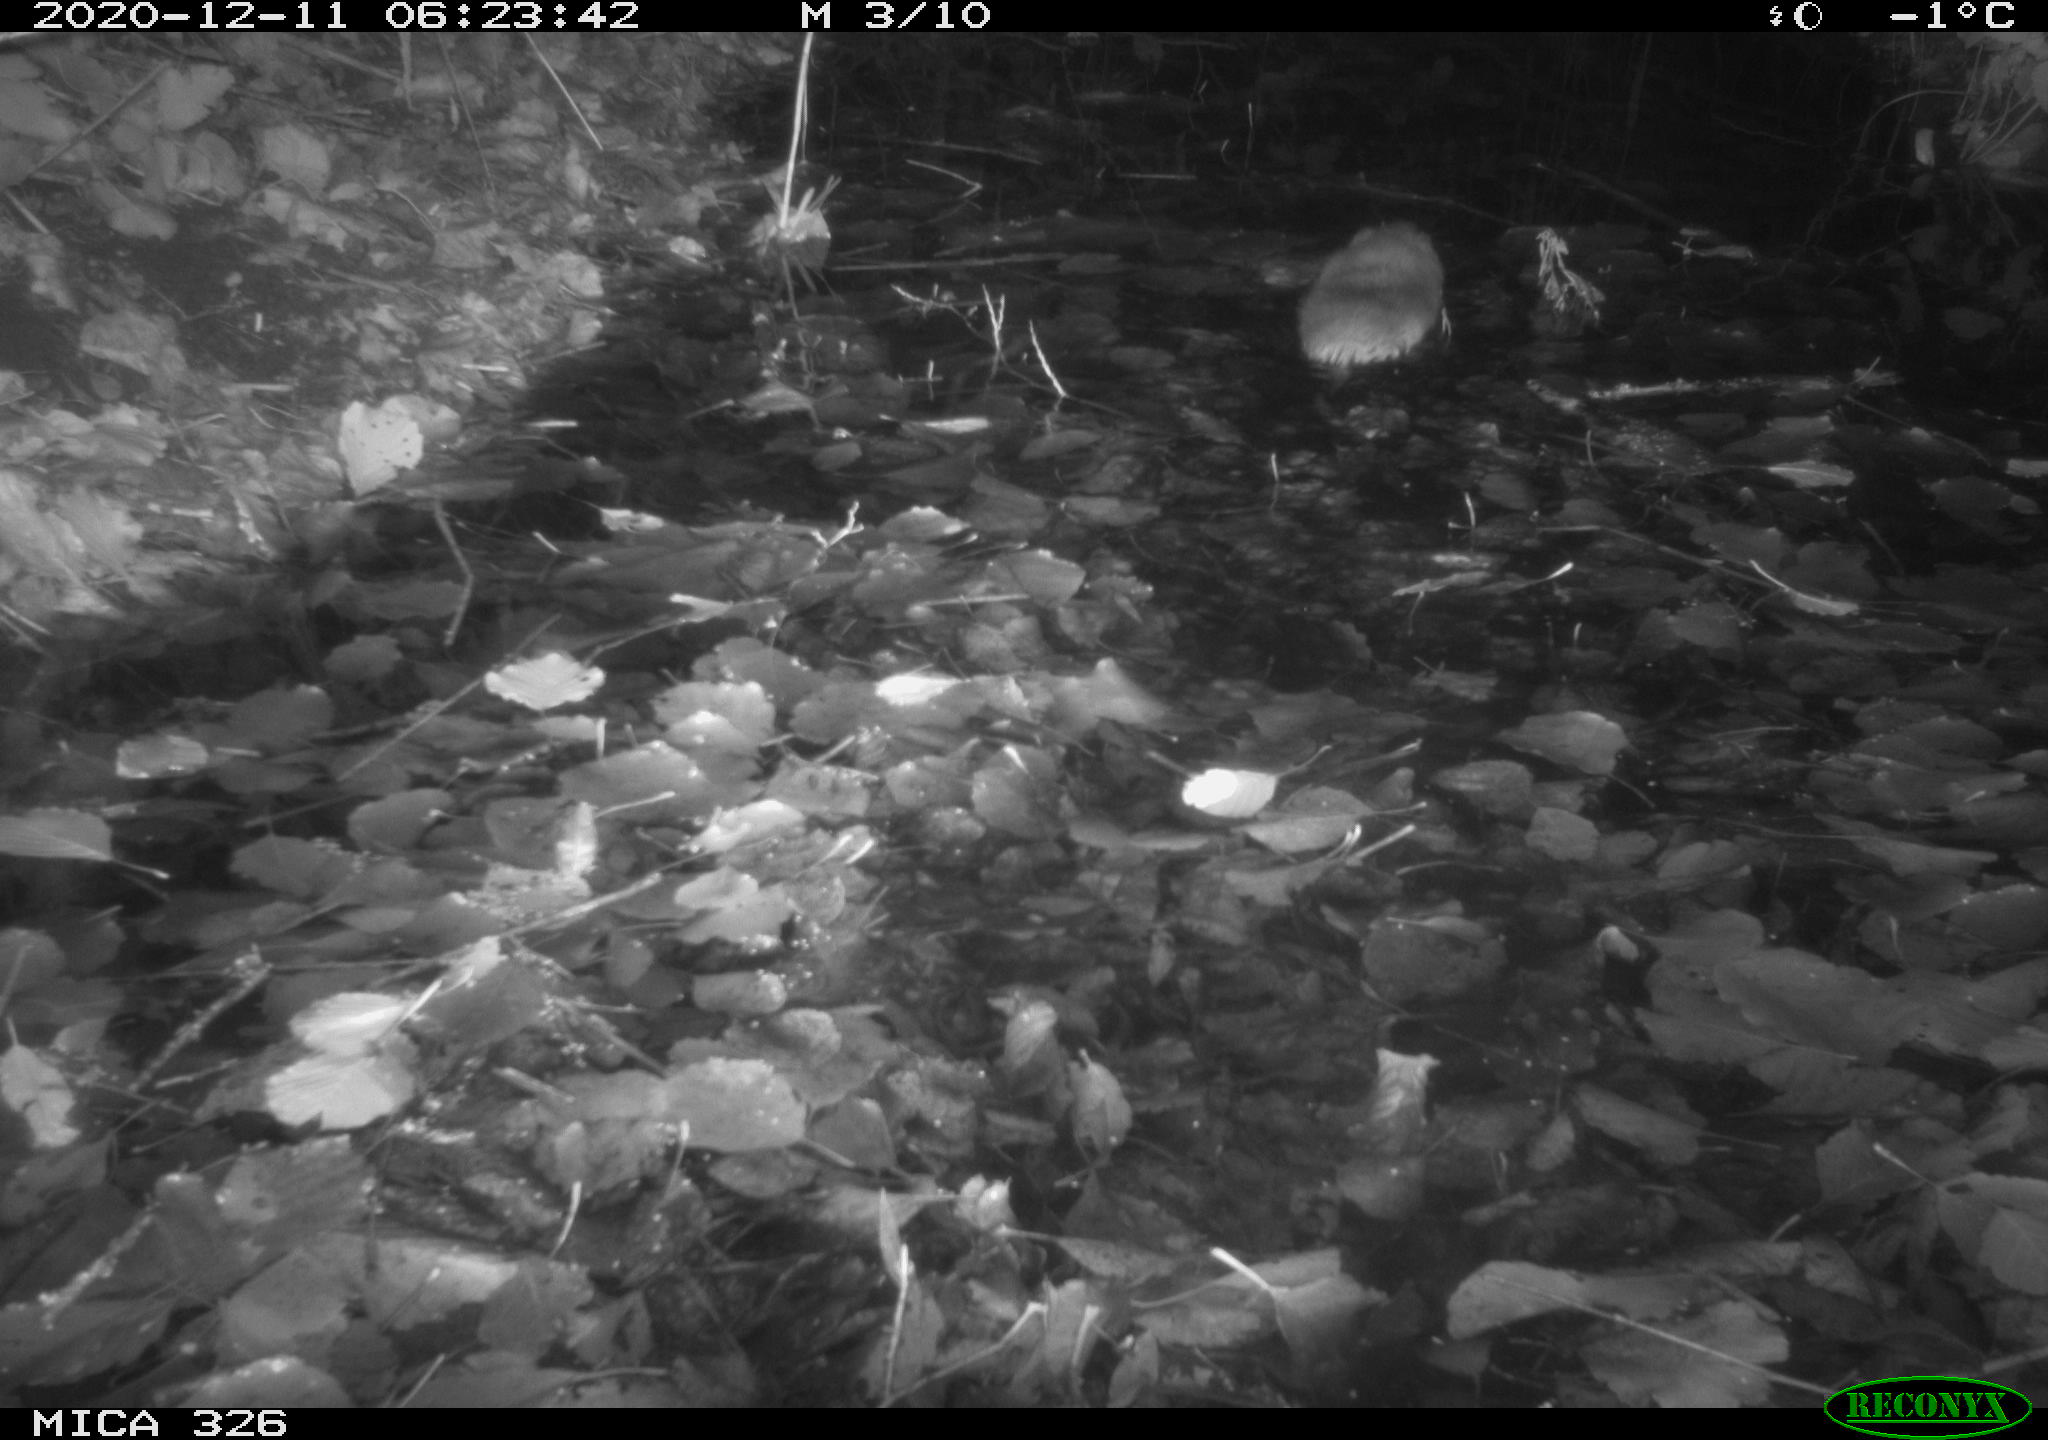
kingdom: Animalia
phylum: Chordata
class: Mammalia
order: Rodentia
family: Cricetidae
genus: Ondatra
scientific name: Ondatra zibethicus
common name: Muskrat
